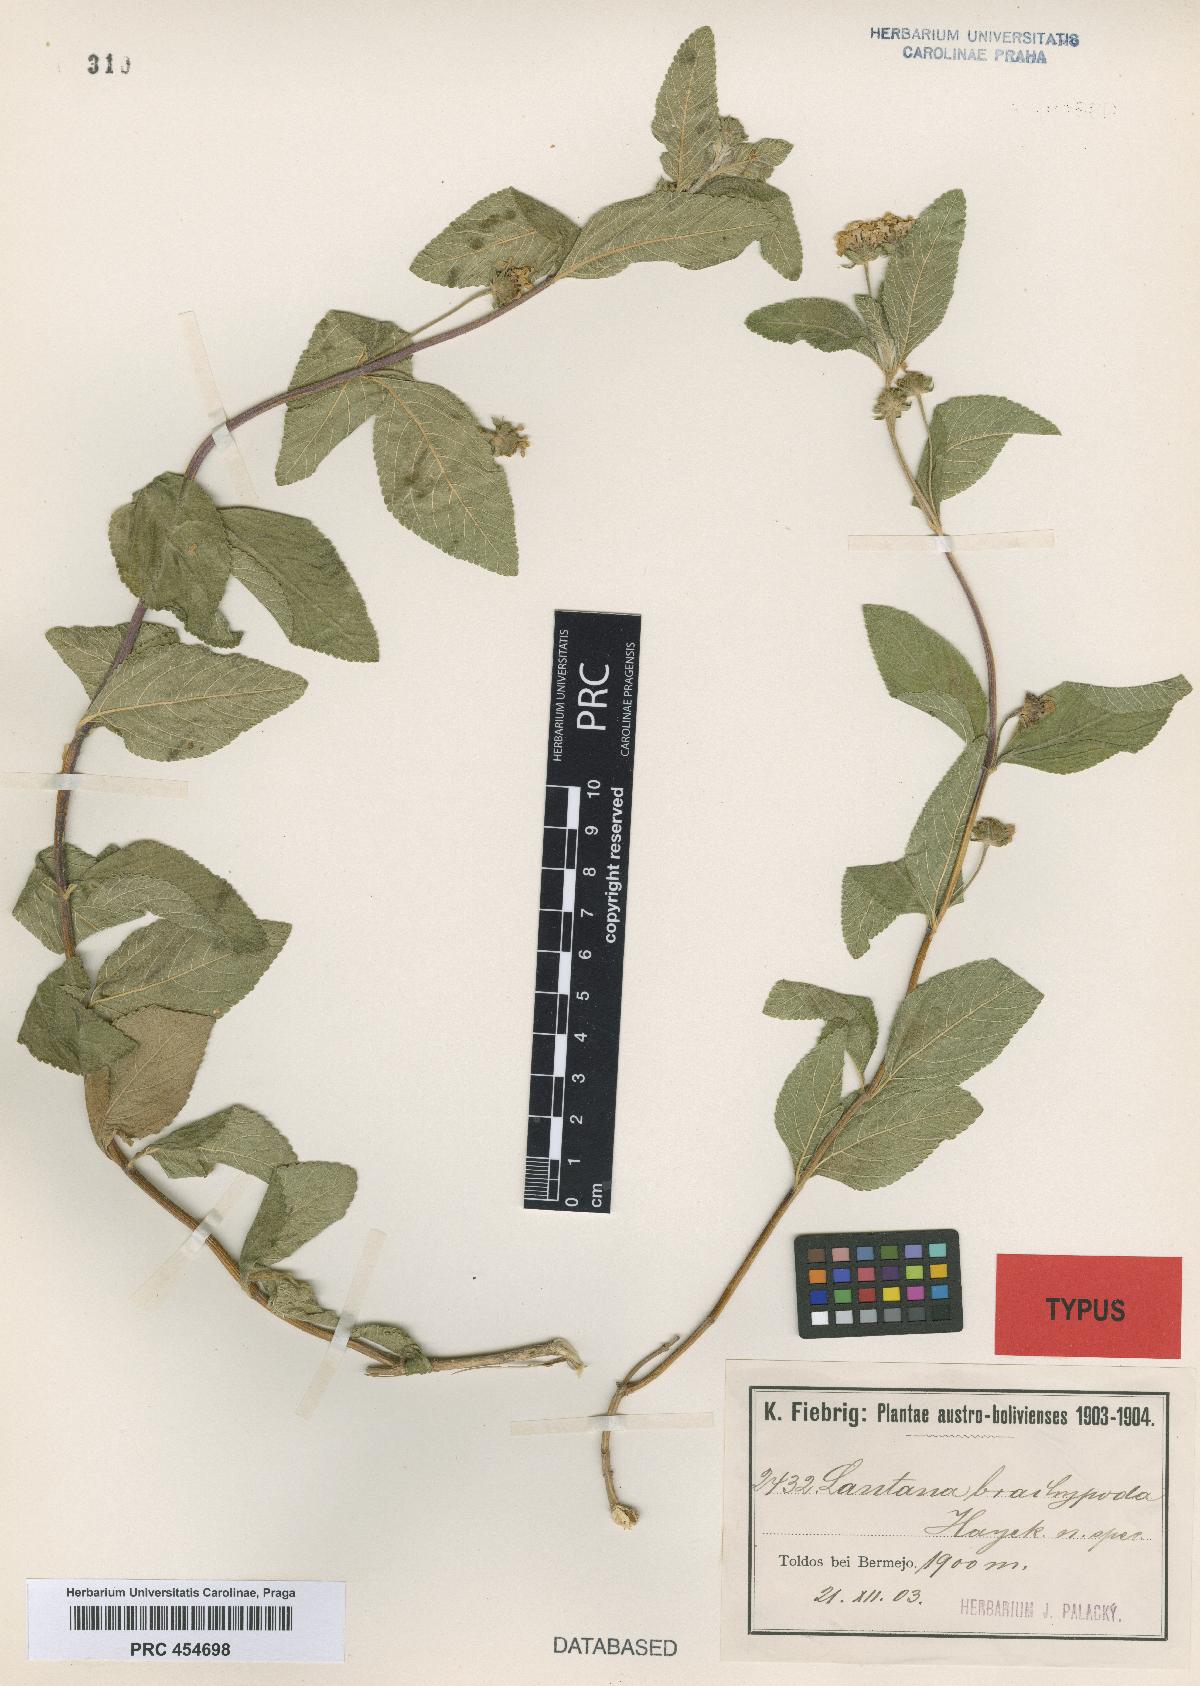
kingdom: Plantae
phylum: Tracheophyta
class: Magnoliopsida
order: Lamiales
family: Verbenaceae
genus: Lippia
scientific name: Lippia brachypoda
